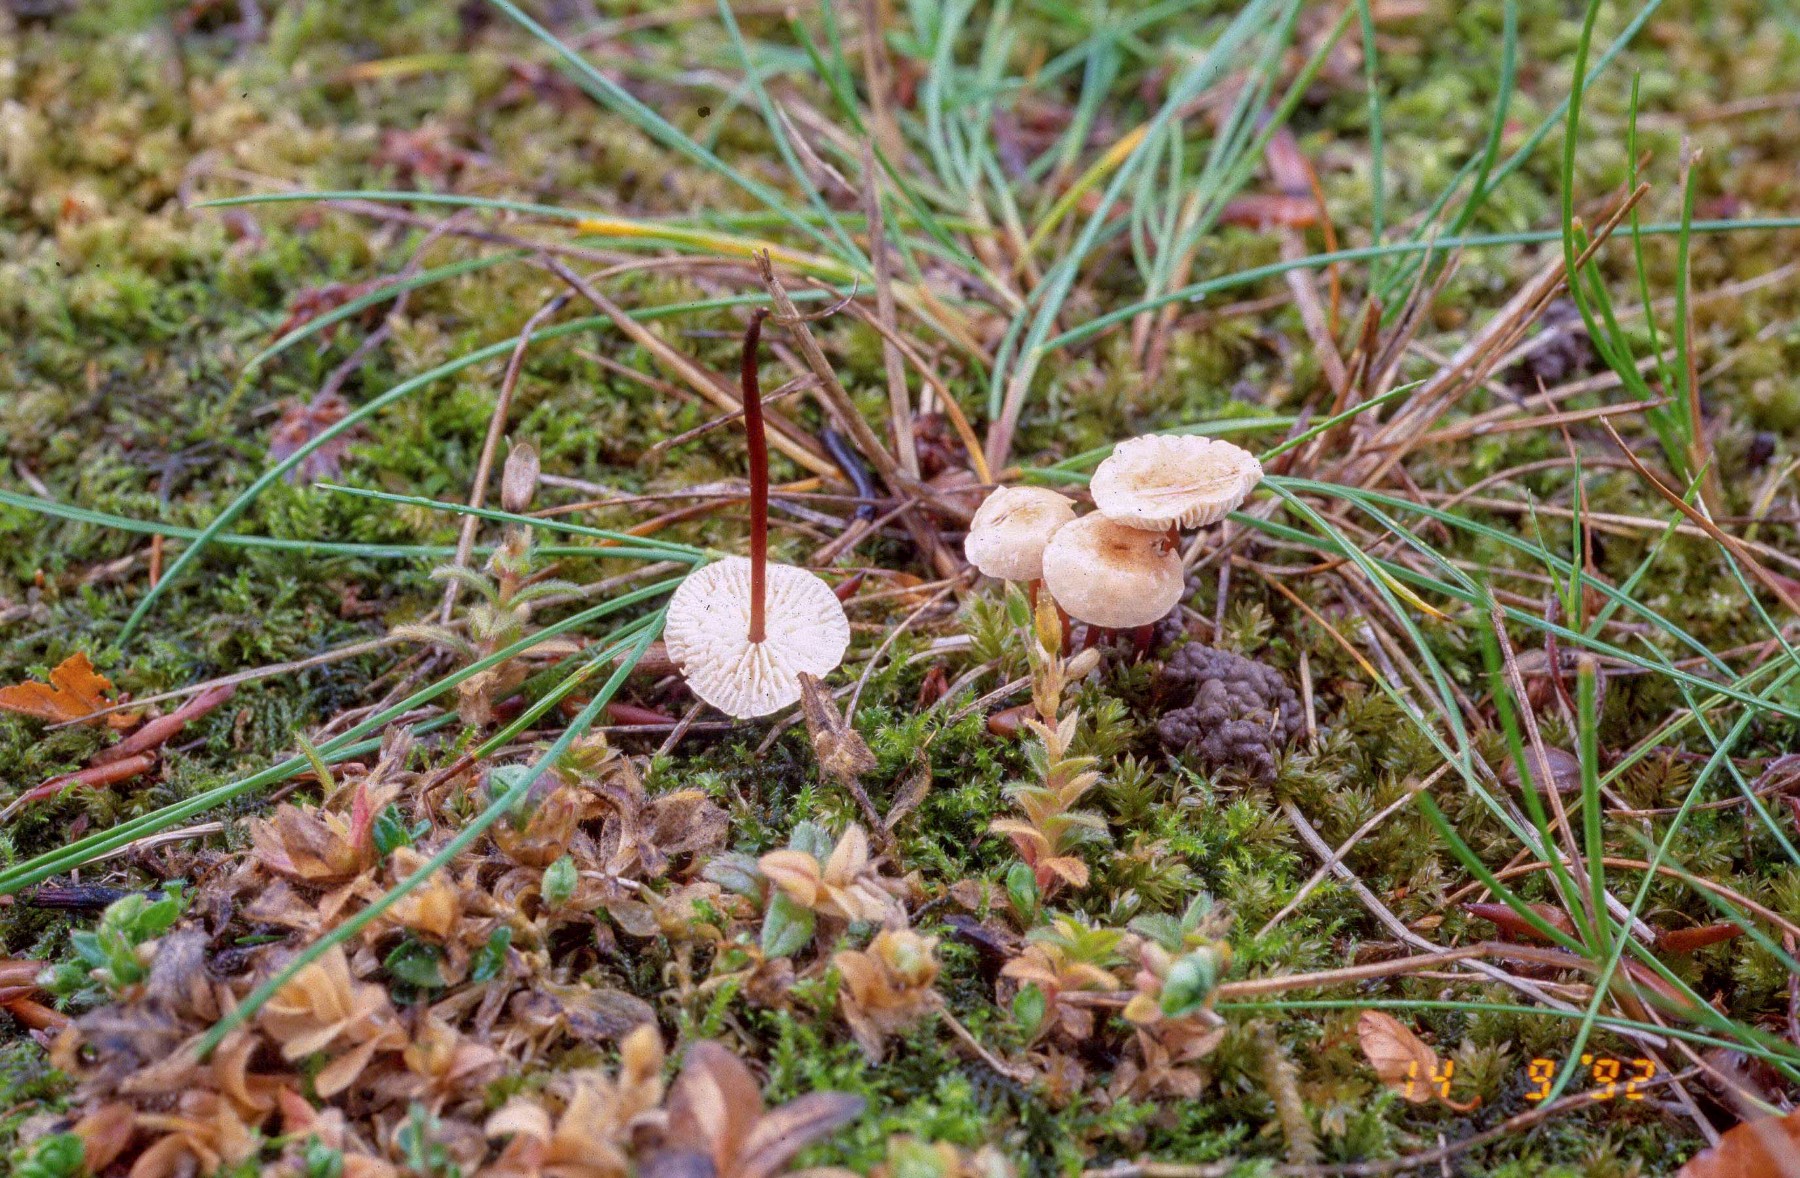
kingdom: Fungi
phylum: Basidiomycota
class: Agaricomycetes
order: Agaricales
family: Omphalotaceae
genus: Mycetinis
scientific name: Mycetinis scorodonius
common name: lille løghat
